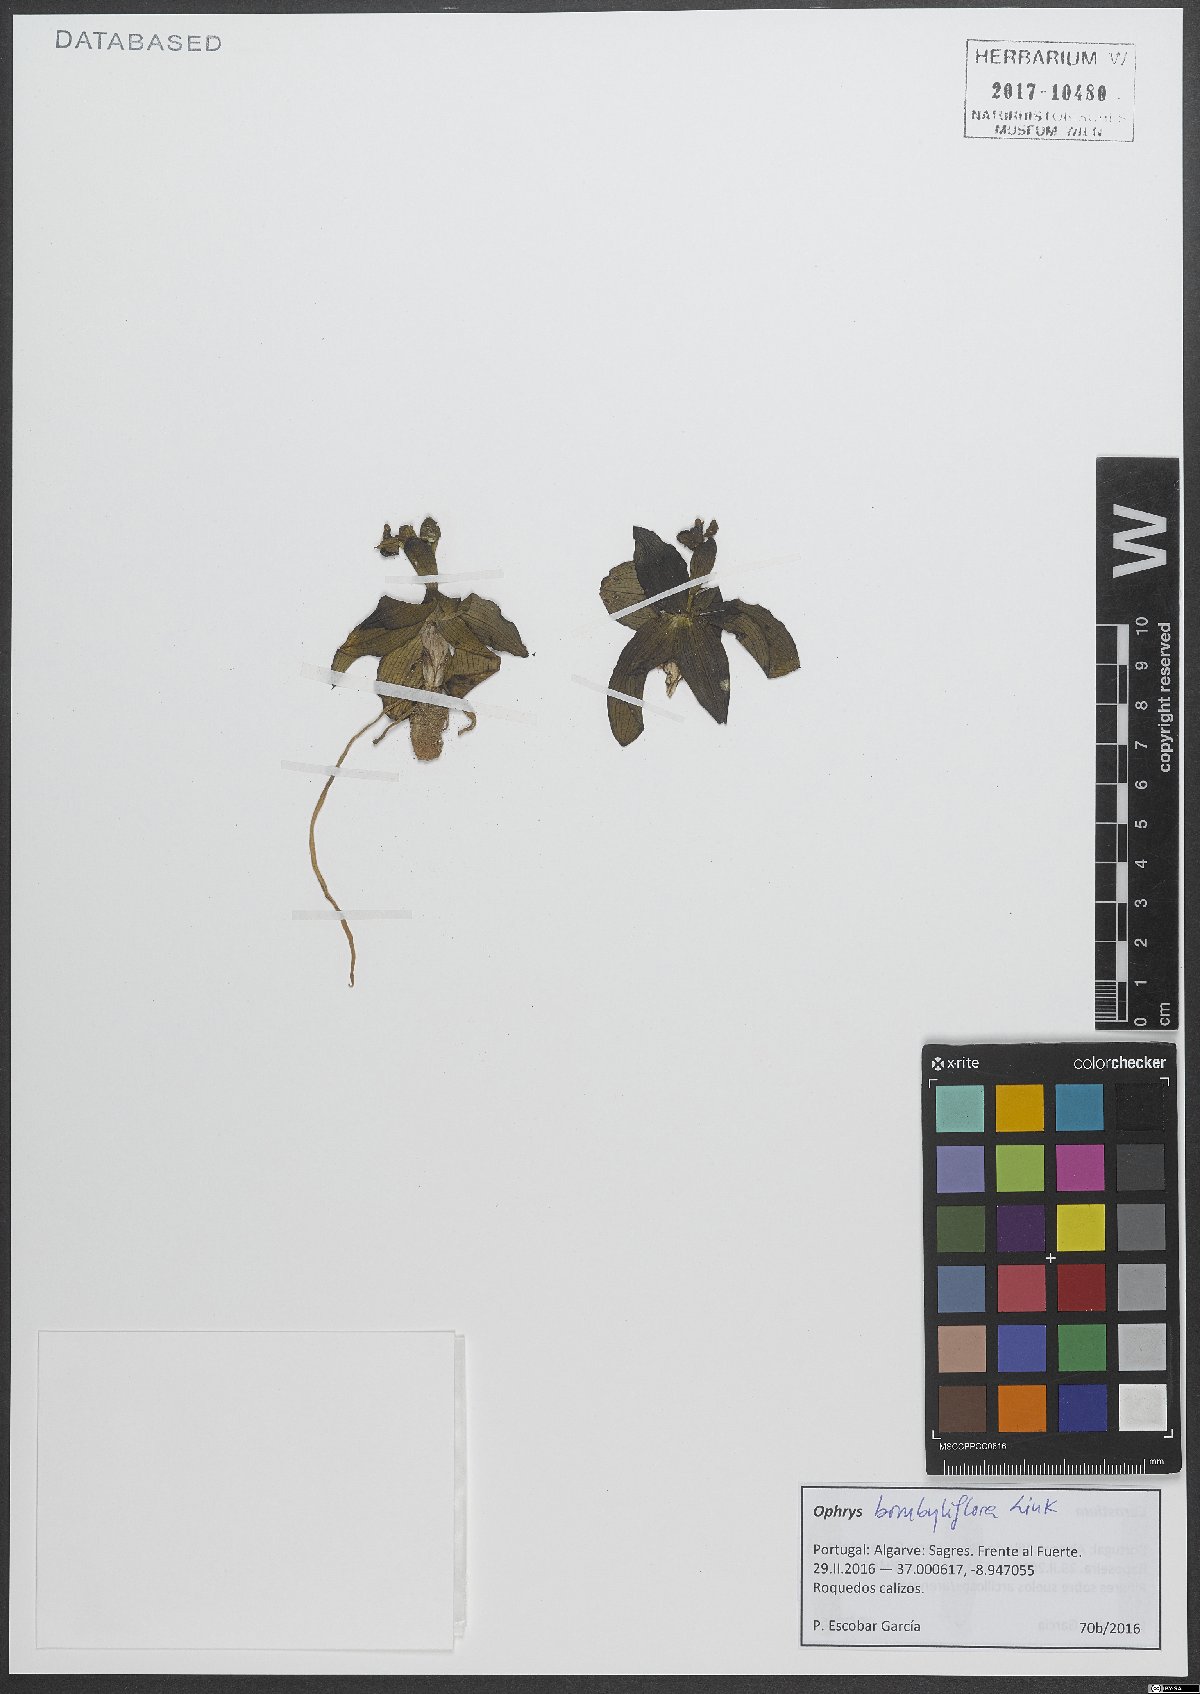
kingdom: Plantae
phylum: Tracheophyta
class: Liliopsida
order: Asparagales
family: Orchidaceae
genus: Ophrys
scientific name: Ophrys bombyliflora
